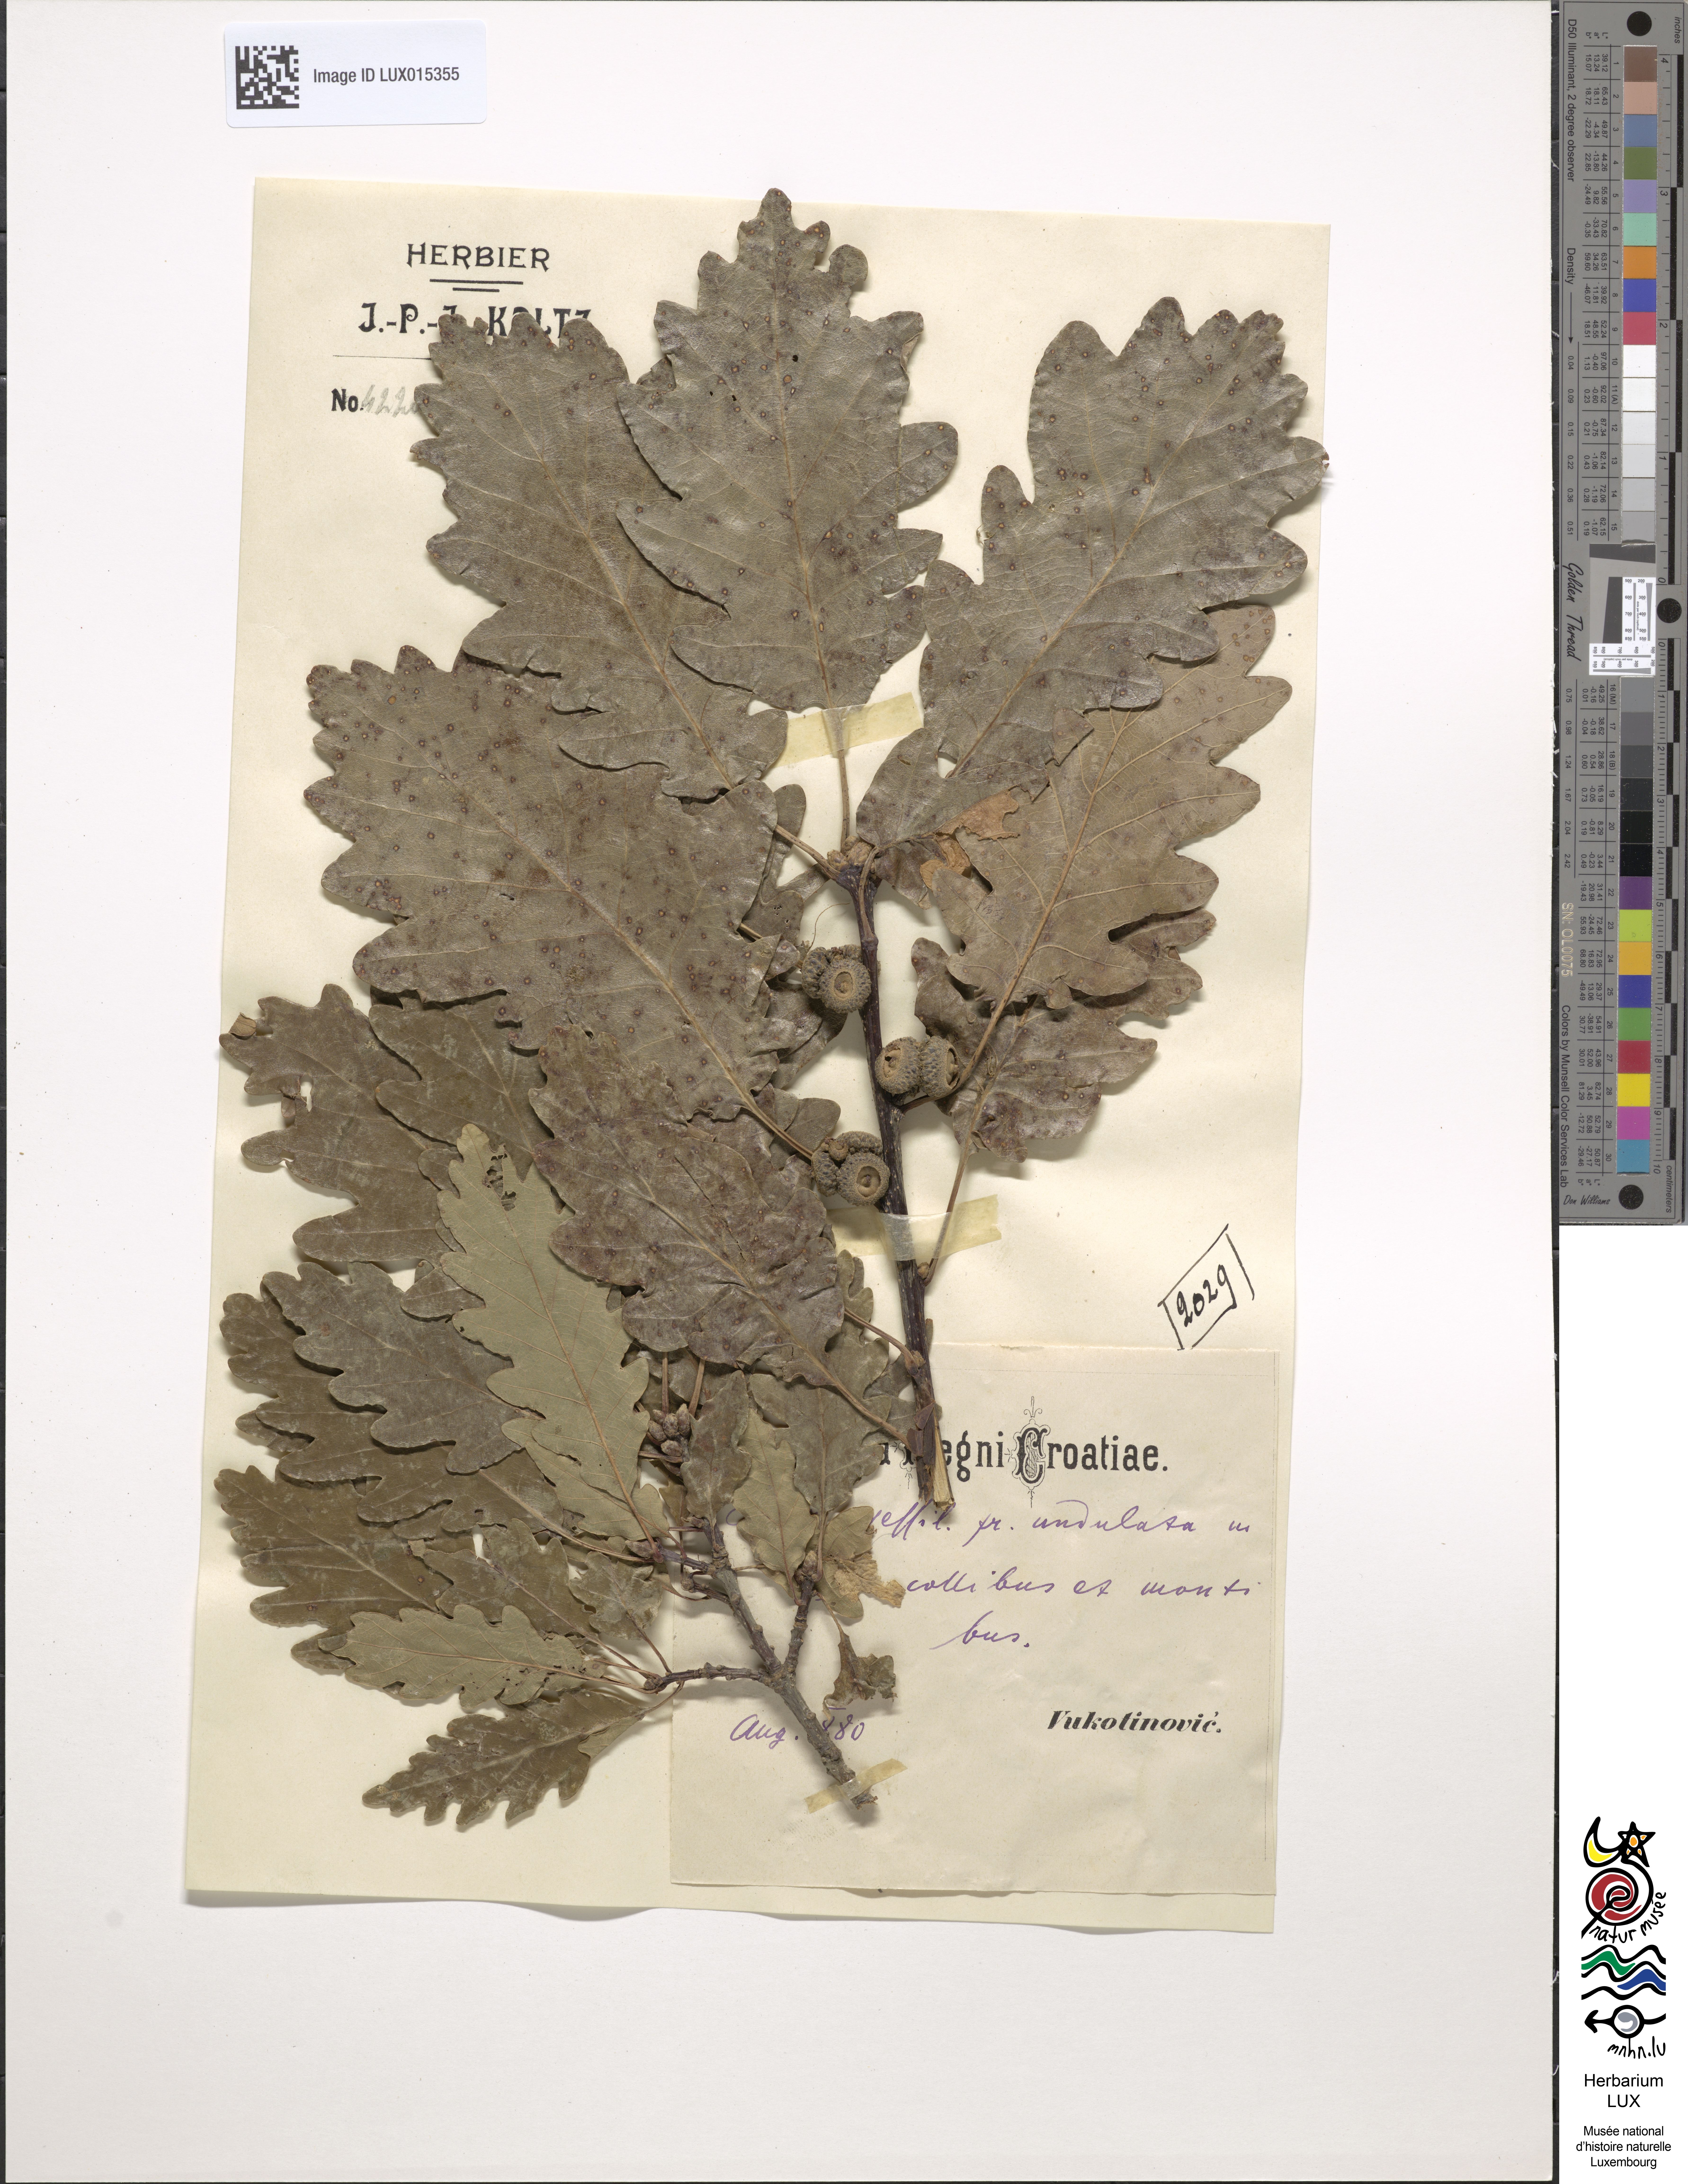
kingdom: Plantae
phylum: Tracheophyta
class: Magnoliopsida
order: Fagales
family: Fagaceae
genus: Quercus
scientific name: Quercus petraea
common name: Sessile oak
